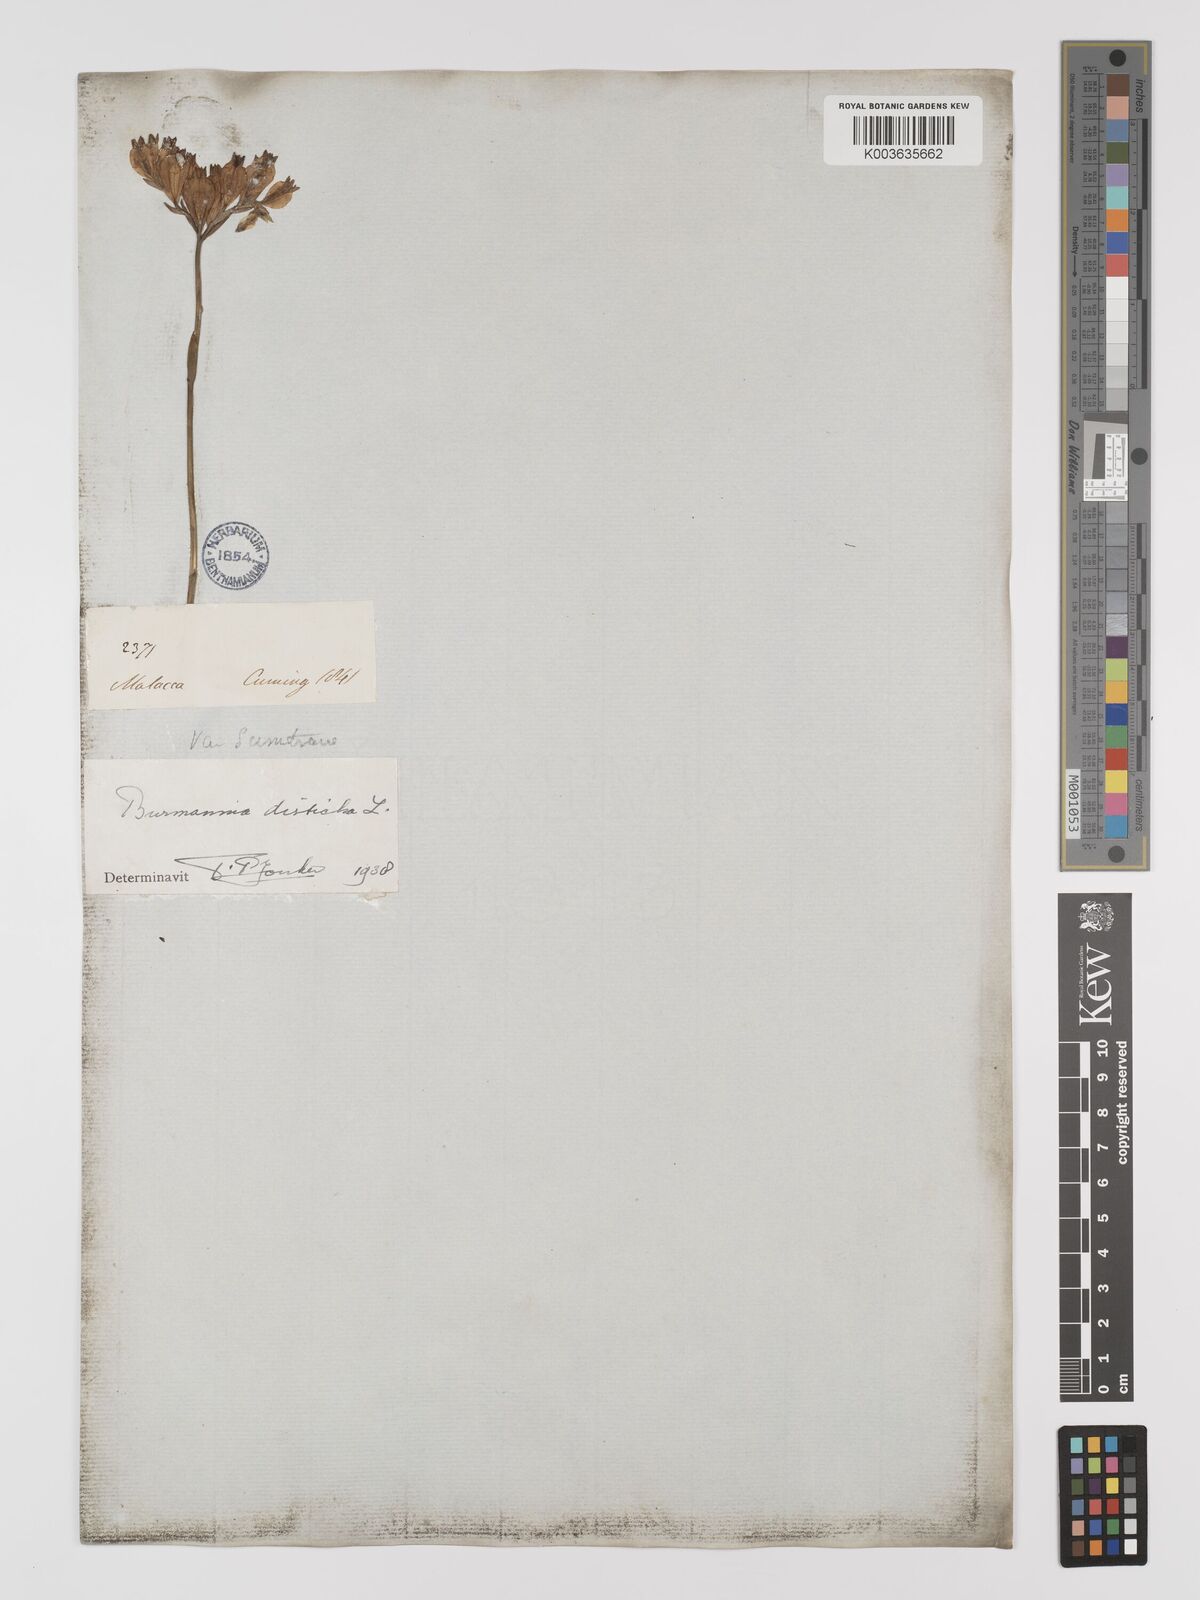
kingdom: Plantae
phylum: Tracheophyta
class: Liliopsida
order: Dioscoreales
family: Burmanniaceae
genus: Burmannia
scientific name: Burmannia disticha
